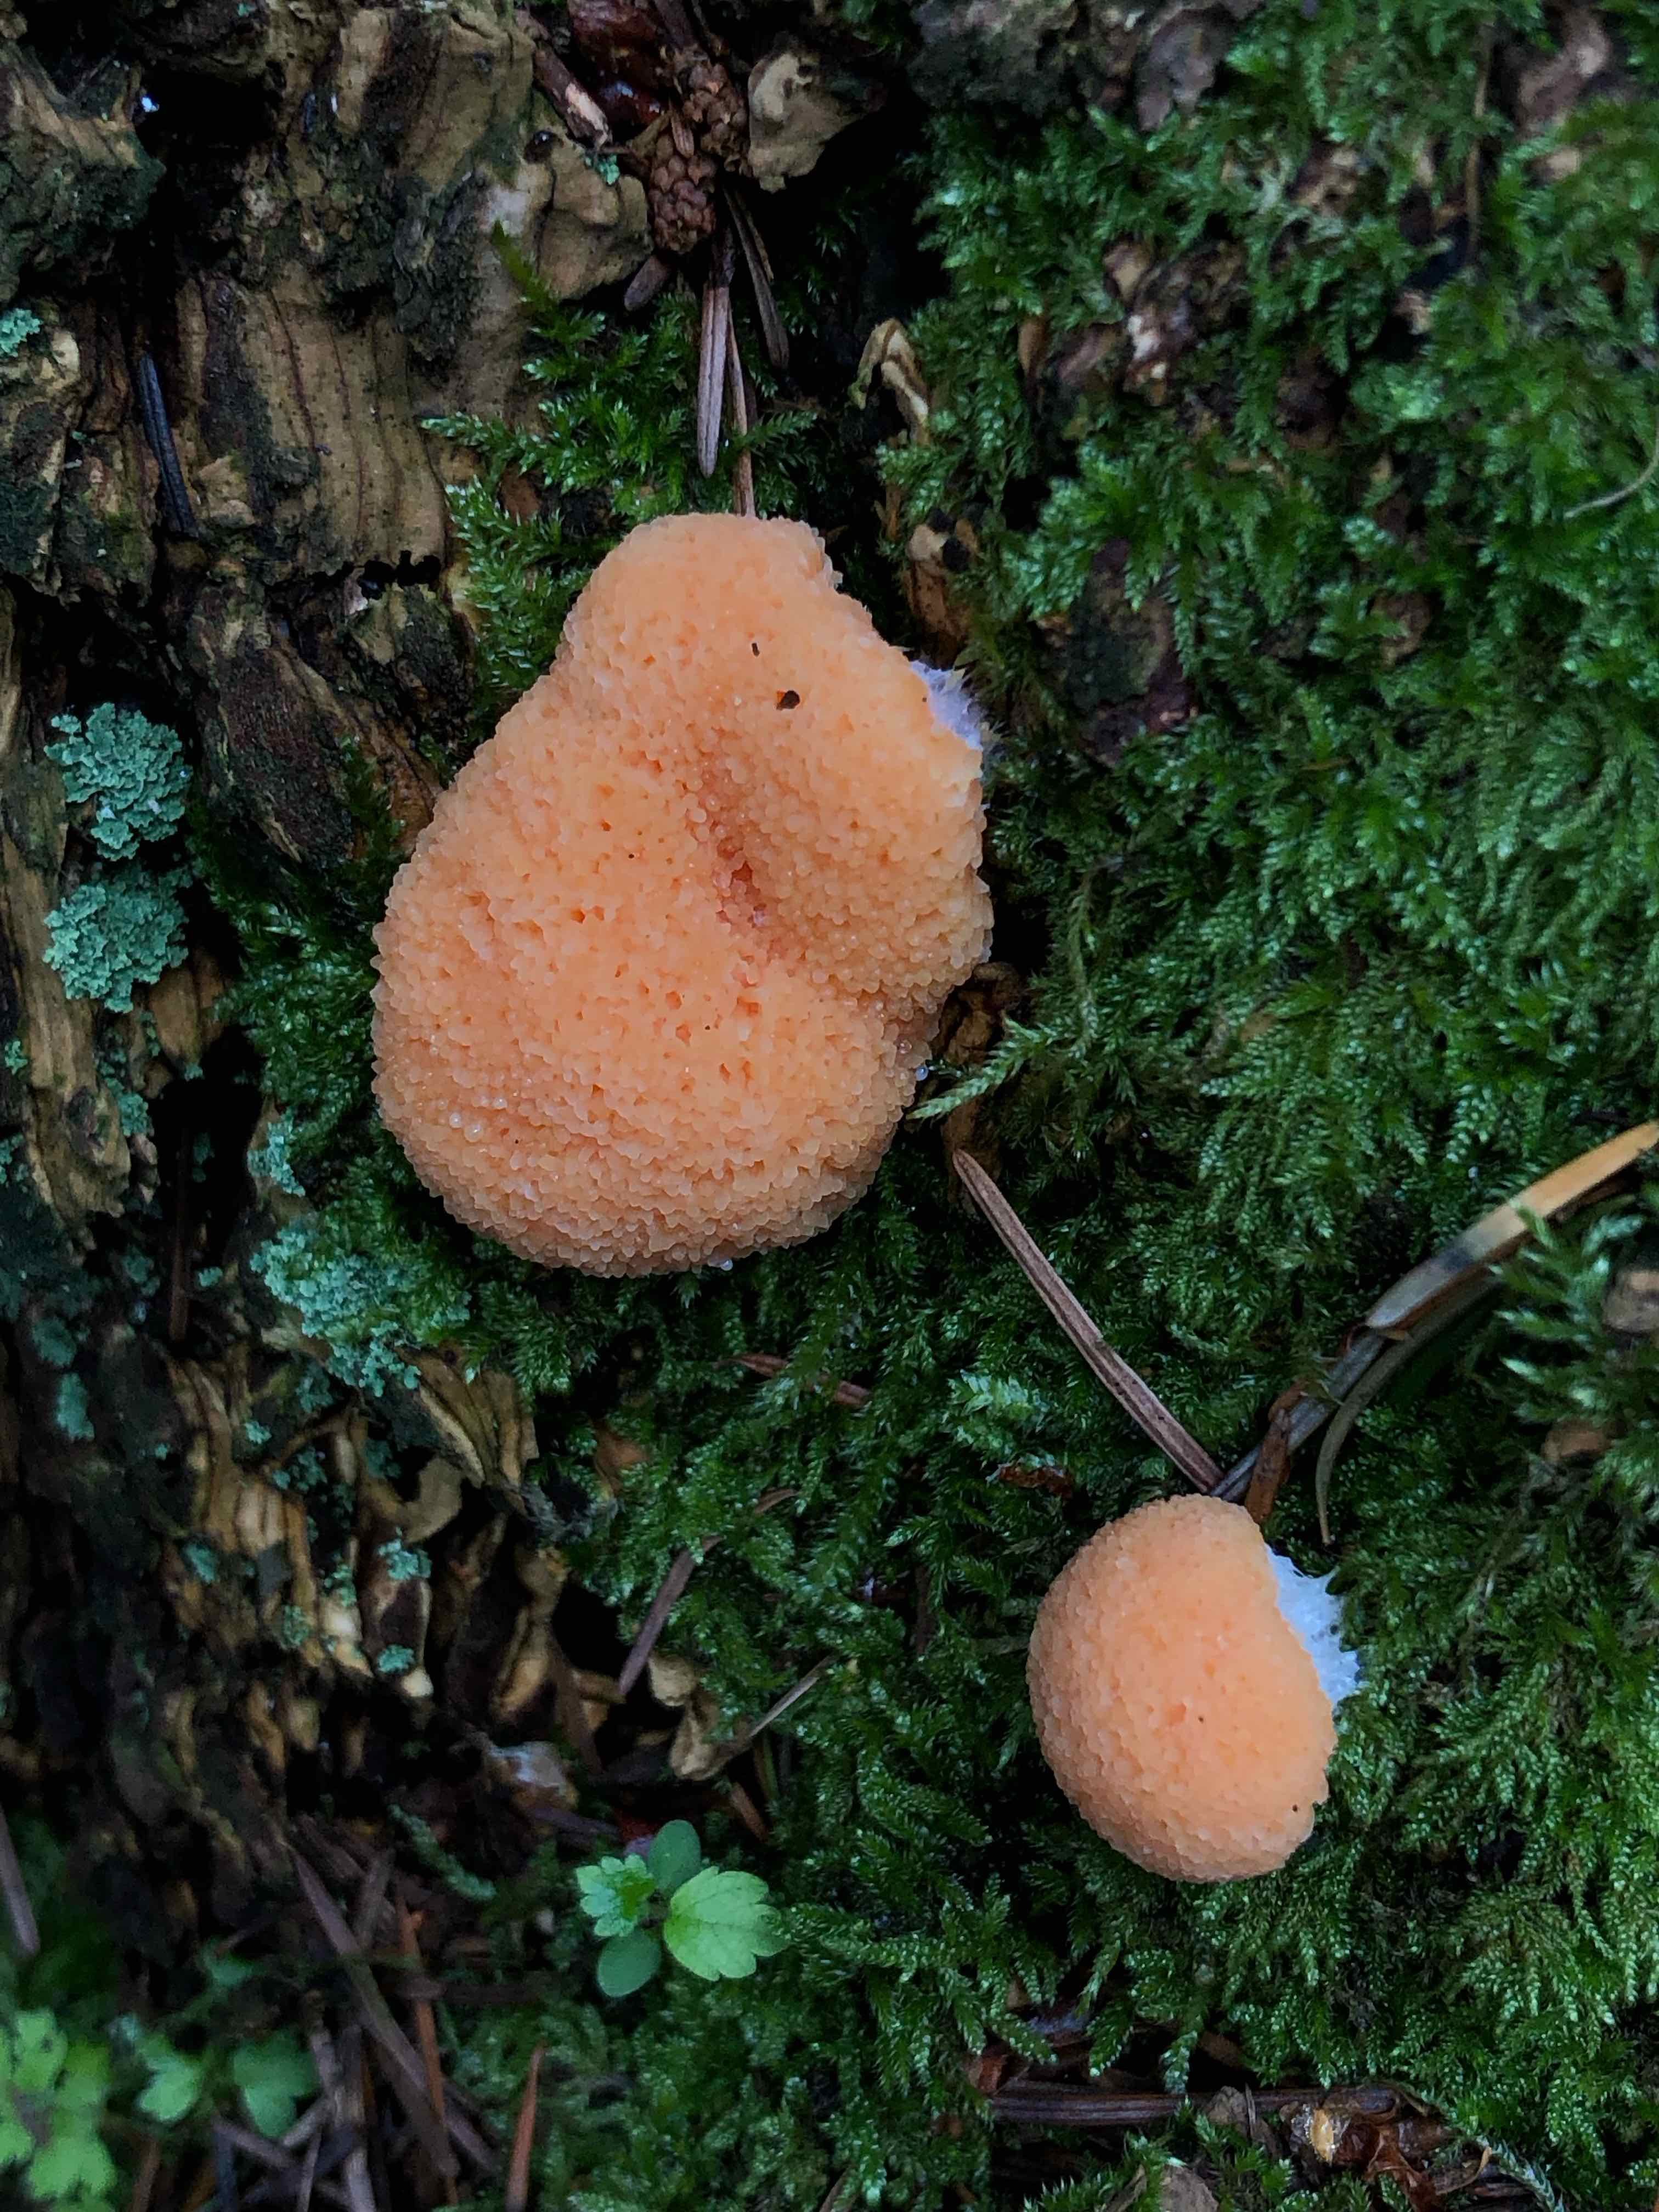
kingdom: Protozoa
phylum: Mycetozoa
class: Myxomycetes
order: Cribrariales
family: Tubiferaceae
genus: Tubifera
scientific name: Tubifera ferruginosa
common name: kanel-støvrør
